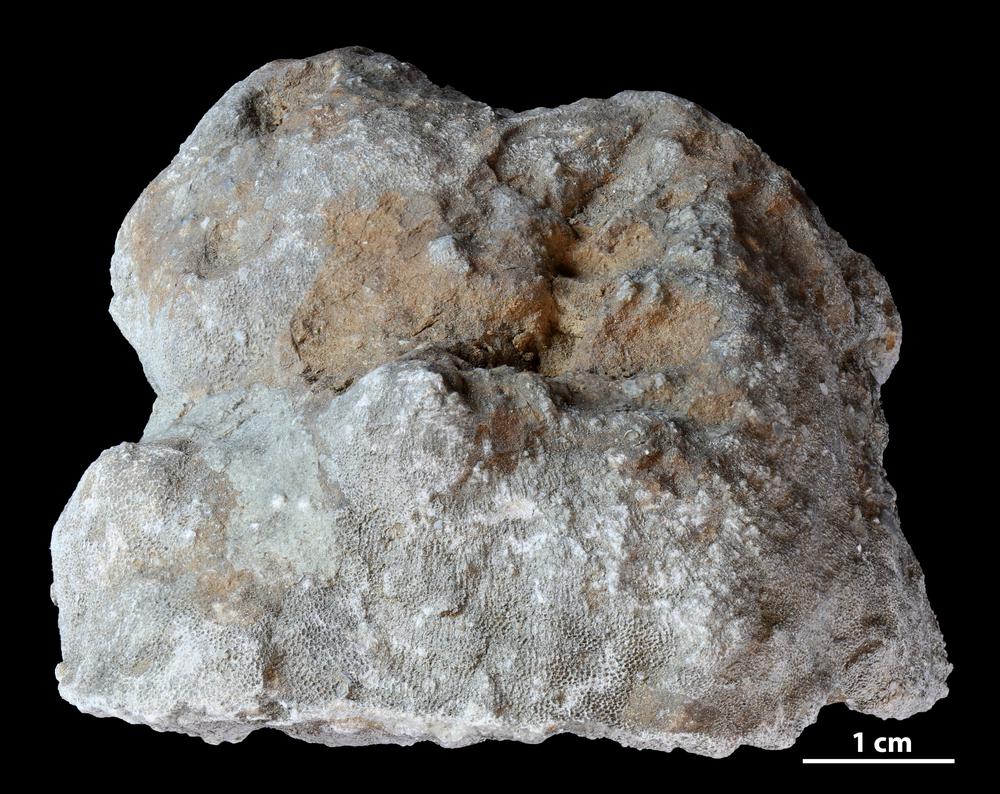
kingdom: Animalia
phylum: Bryozoa
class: Stenolaemata
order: Trepostomatida
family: Diplotrypidae
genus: Diplotrypa
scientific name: Diplotrypa
